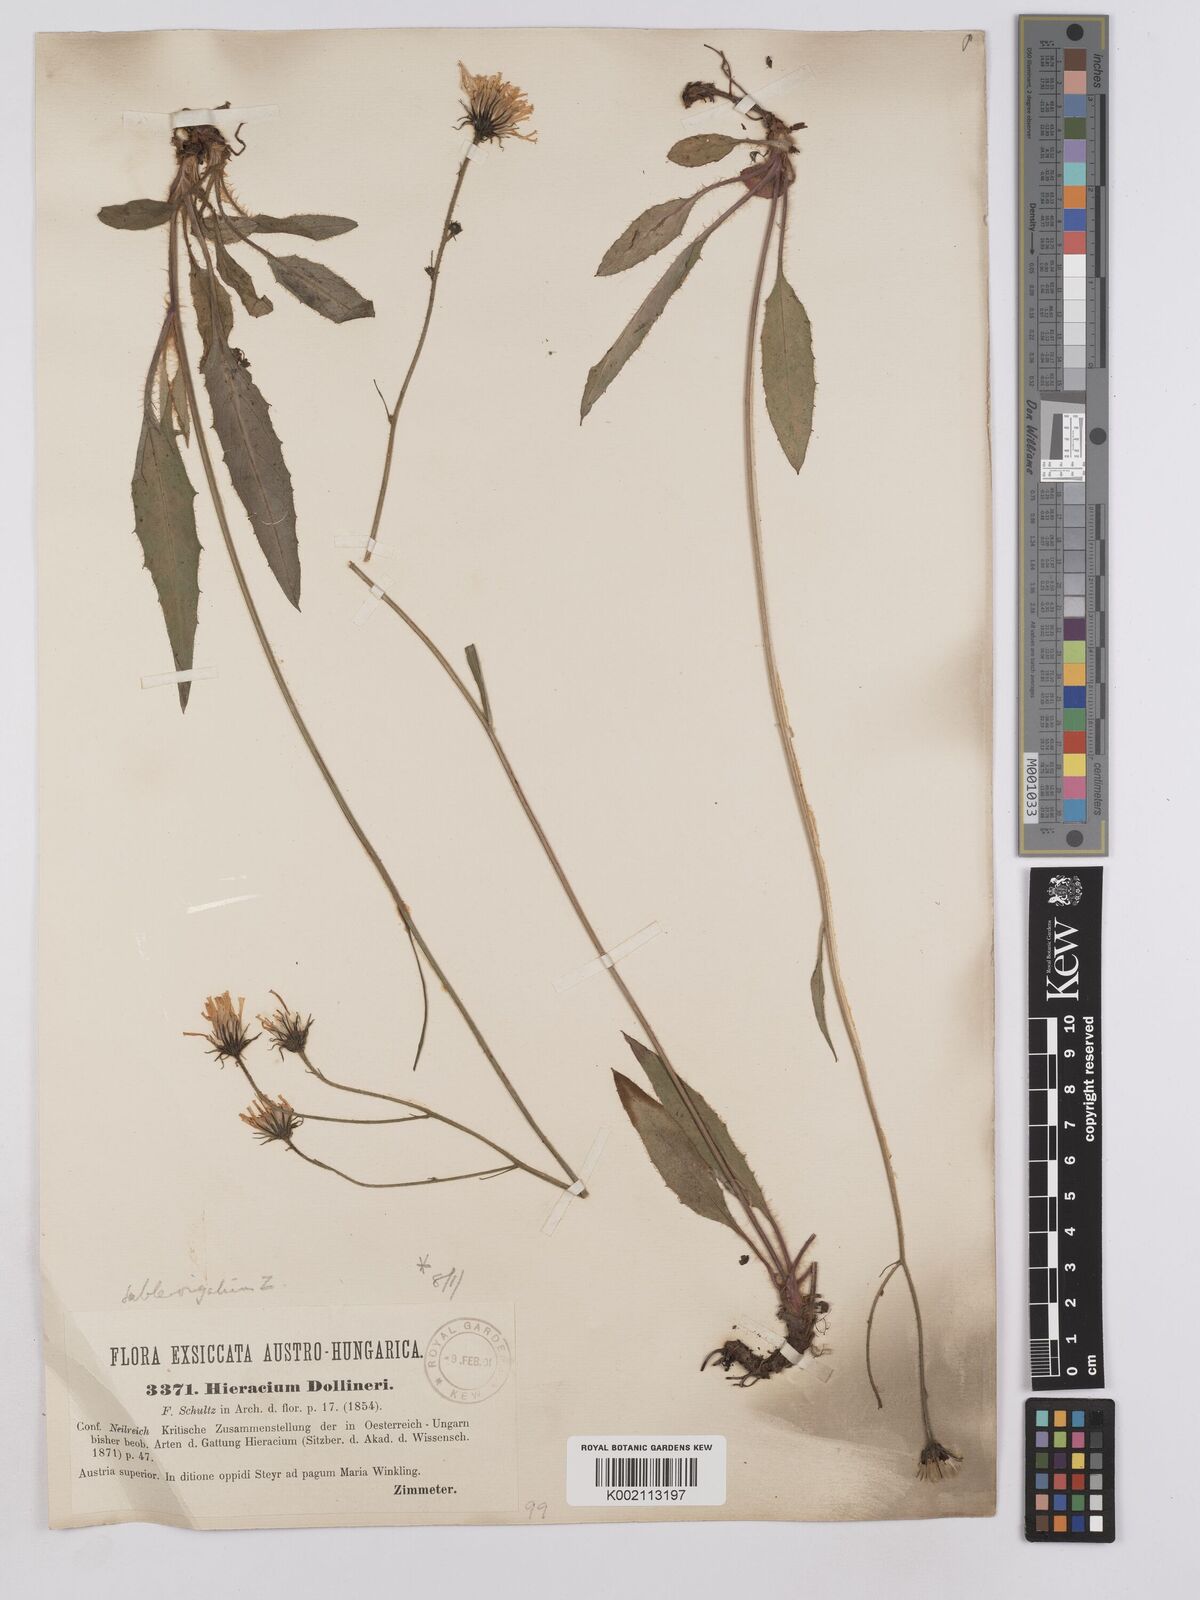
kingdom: Plantae
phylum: Tracheophyta
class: Magnoliopsida
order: Asterales
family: Asteraceae
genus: Crepis
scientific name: Crepis blattarioides
